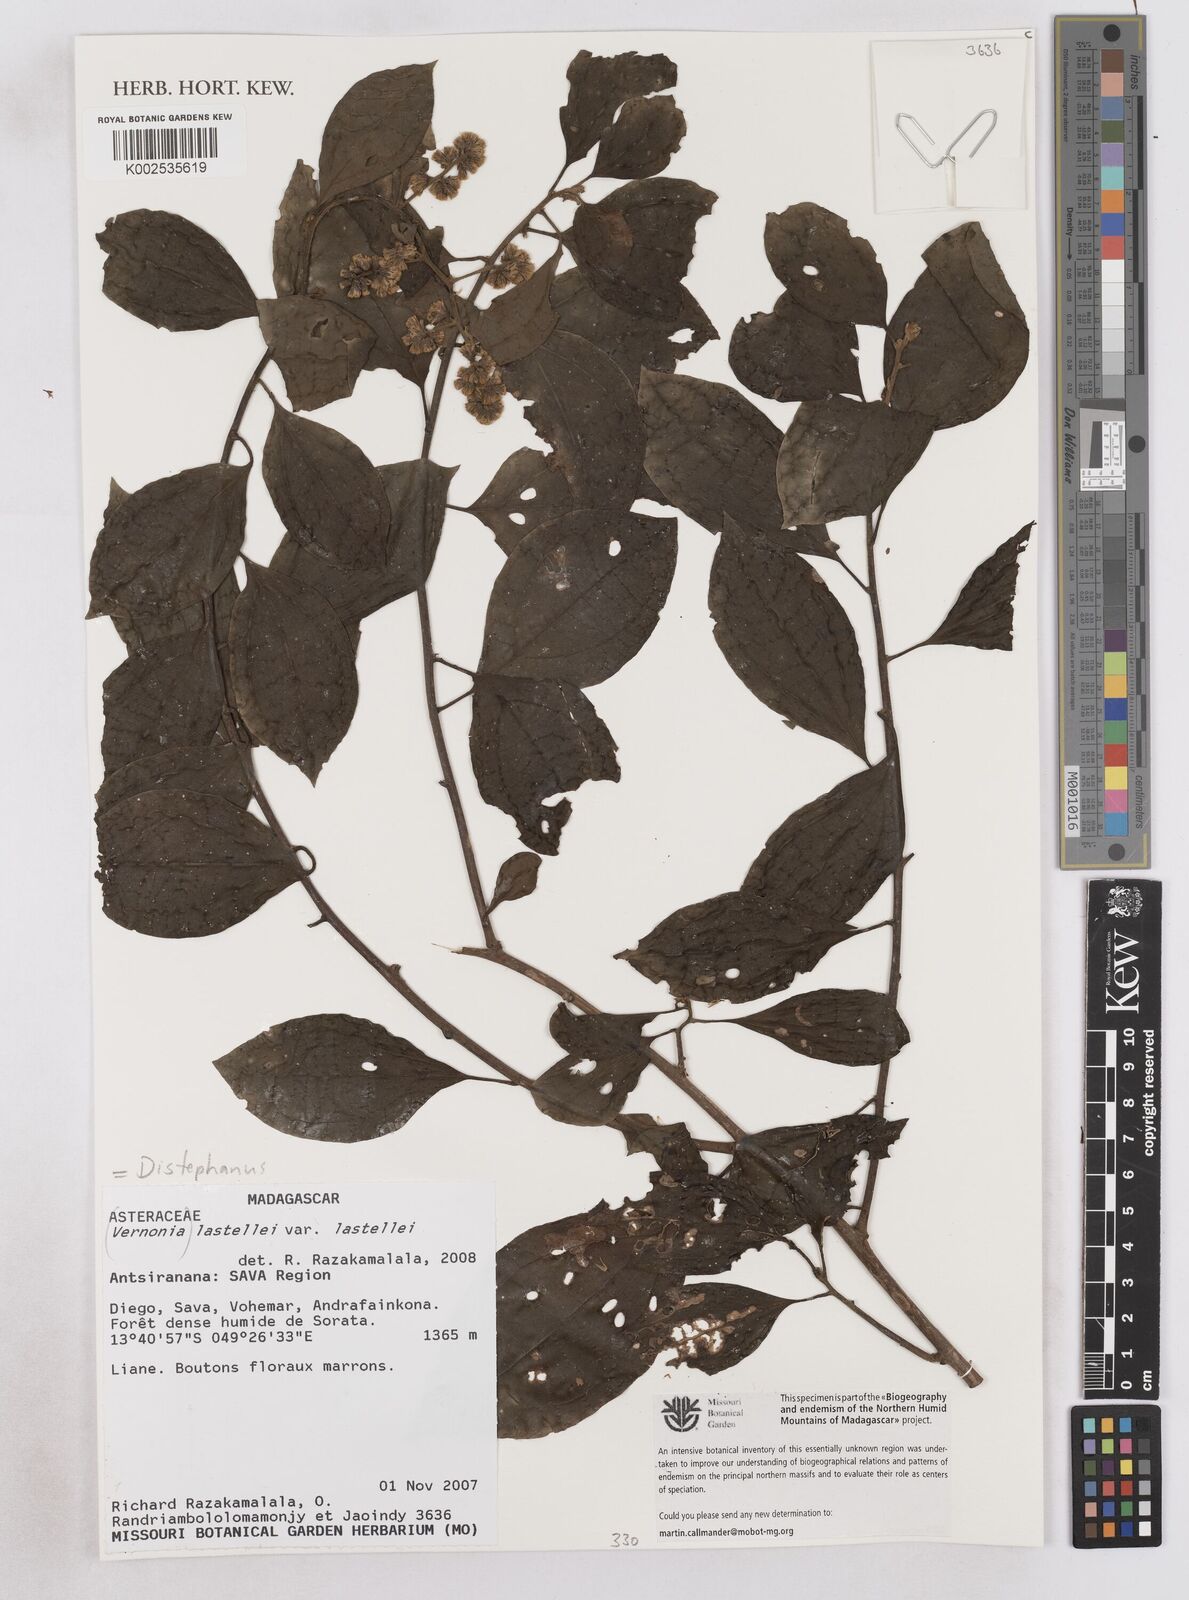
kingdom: Plantae
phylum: Tracheophyta
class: Magnoliopsida
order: Asterales
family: Asteraceae
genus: Distephanus
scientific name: Distephanus lastellei
